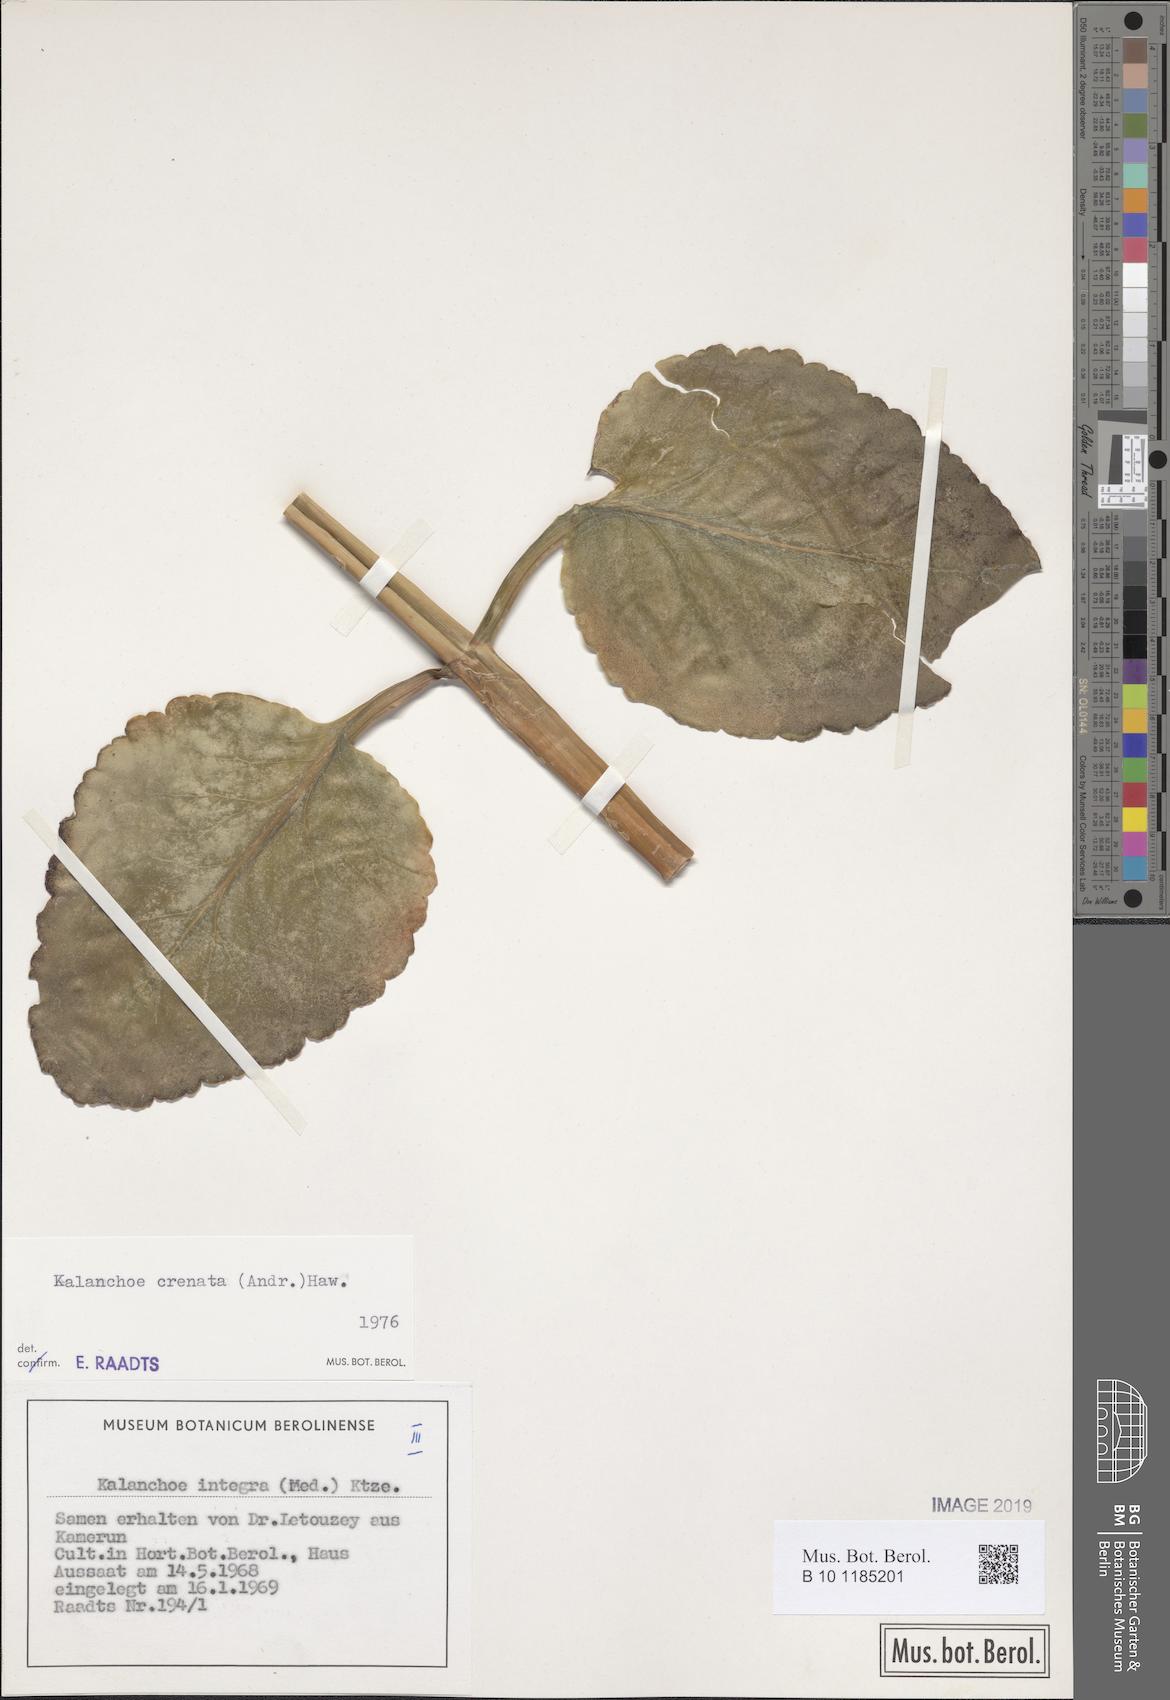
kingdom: Plantae
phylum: Tracheophyta
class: Magnoliopsida
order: Saxifragales
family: Crassulaceae
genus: Kalanchoe
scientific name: Kalanchoe crenata
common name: Neverdie
